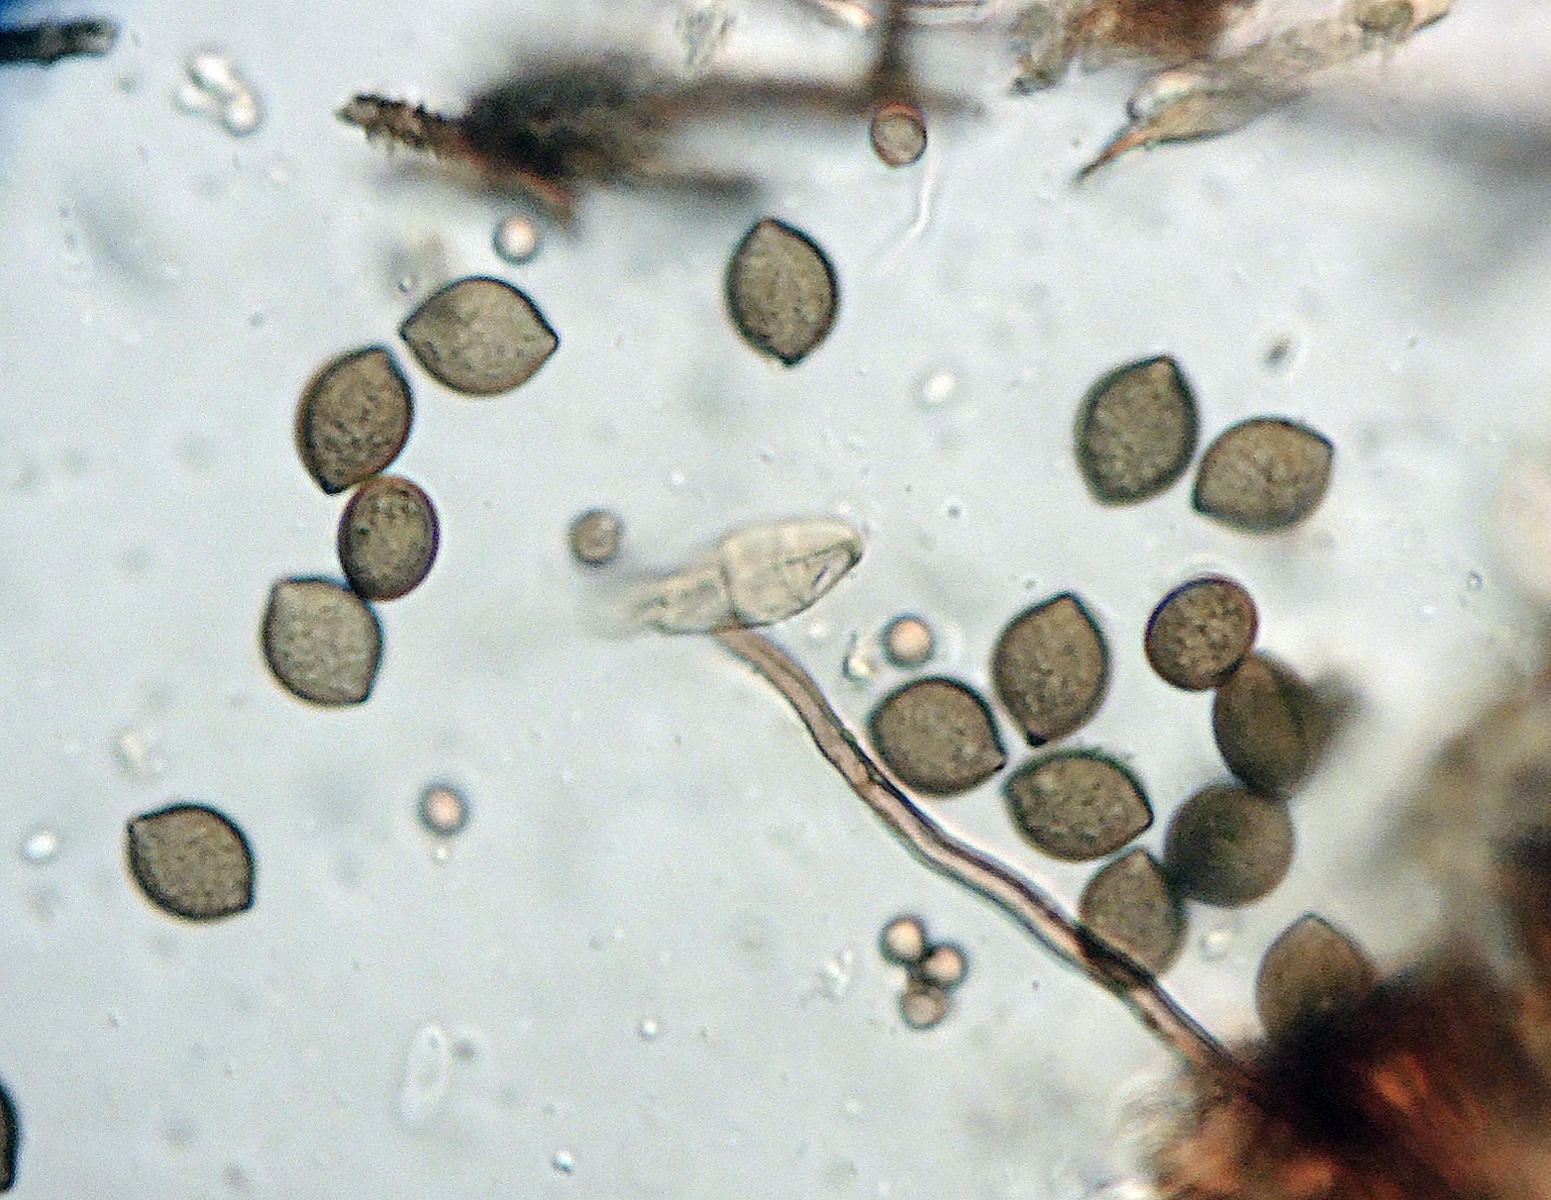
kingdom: Fungi
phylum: Ascomycota
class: Sordariomycetes
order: Sordariales
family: Chaetomiaceae
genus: Chaetomium
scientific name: Chaetomium elatum
